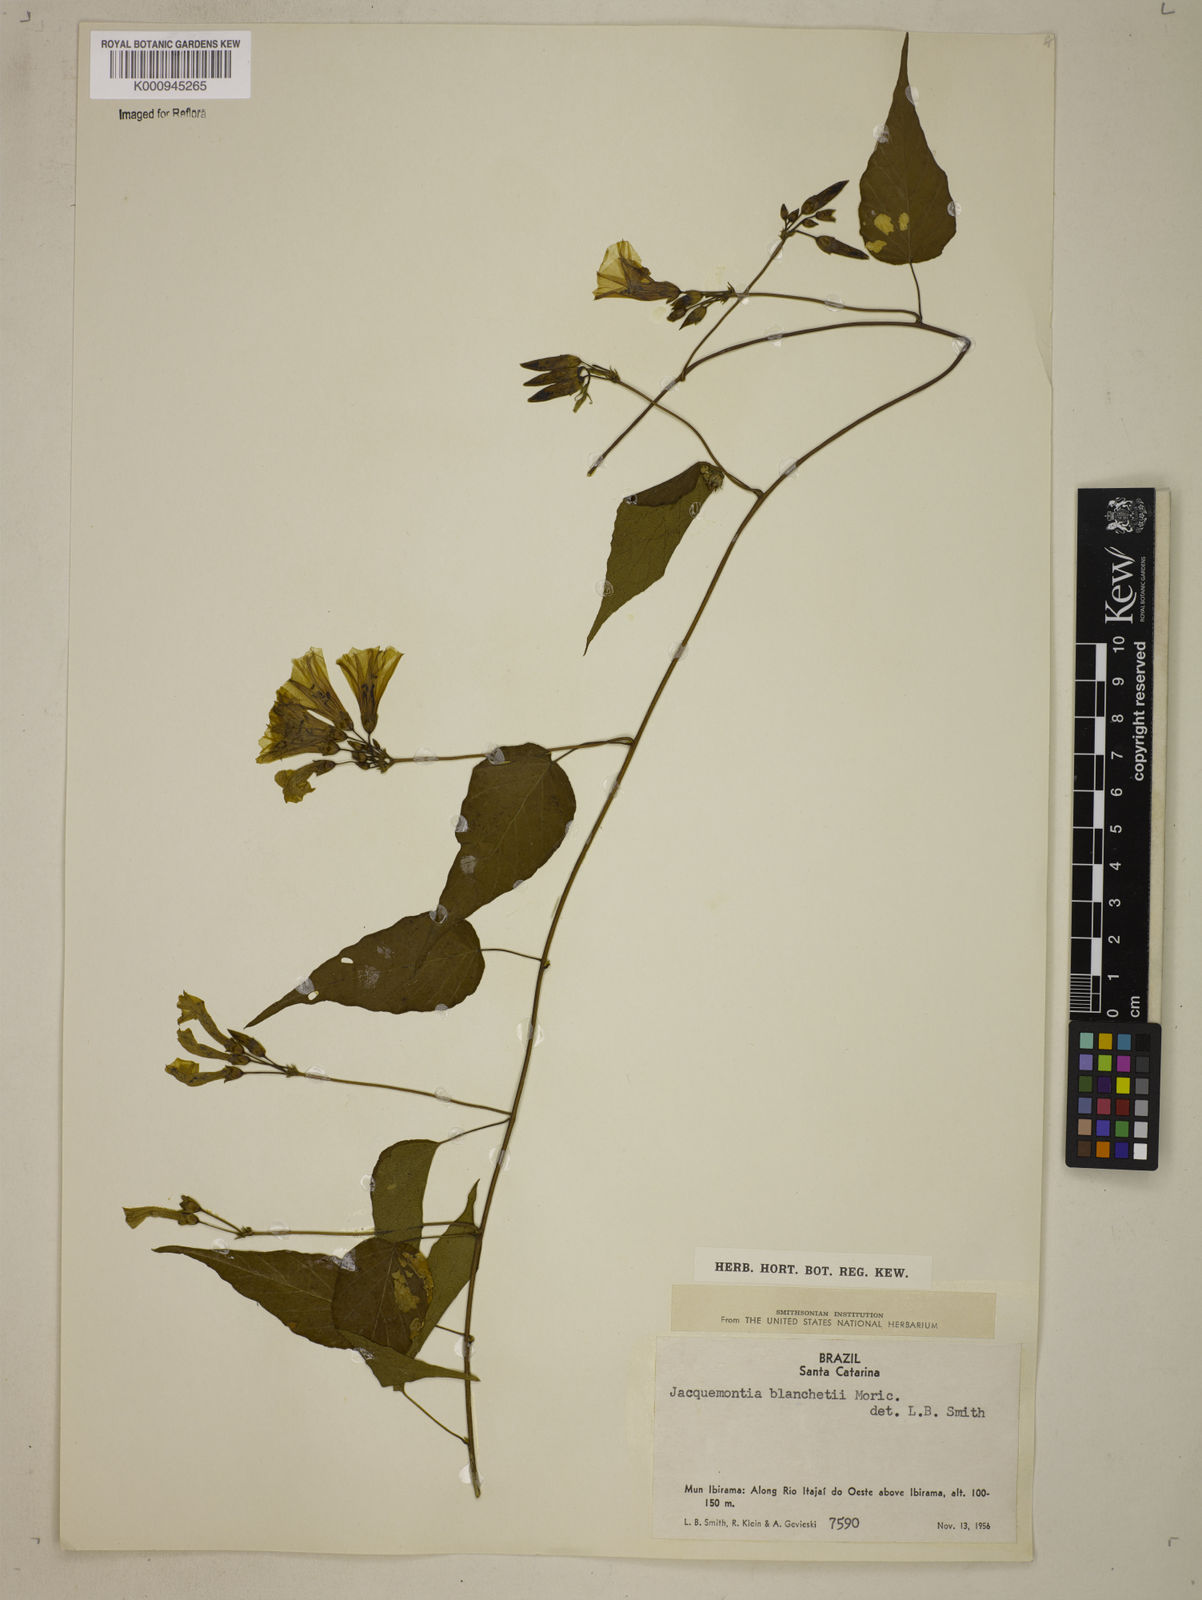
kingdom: Plantae
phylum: Tracheophyta
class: Magnoliopsida
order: Solanales
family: Convolvulaceae
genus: Jacquemontia
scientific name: Jacquemontia blanchetii
